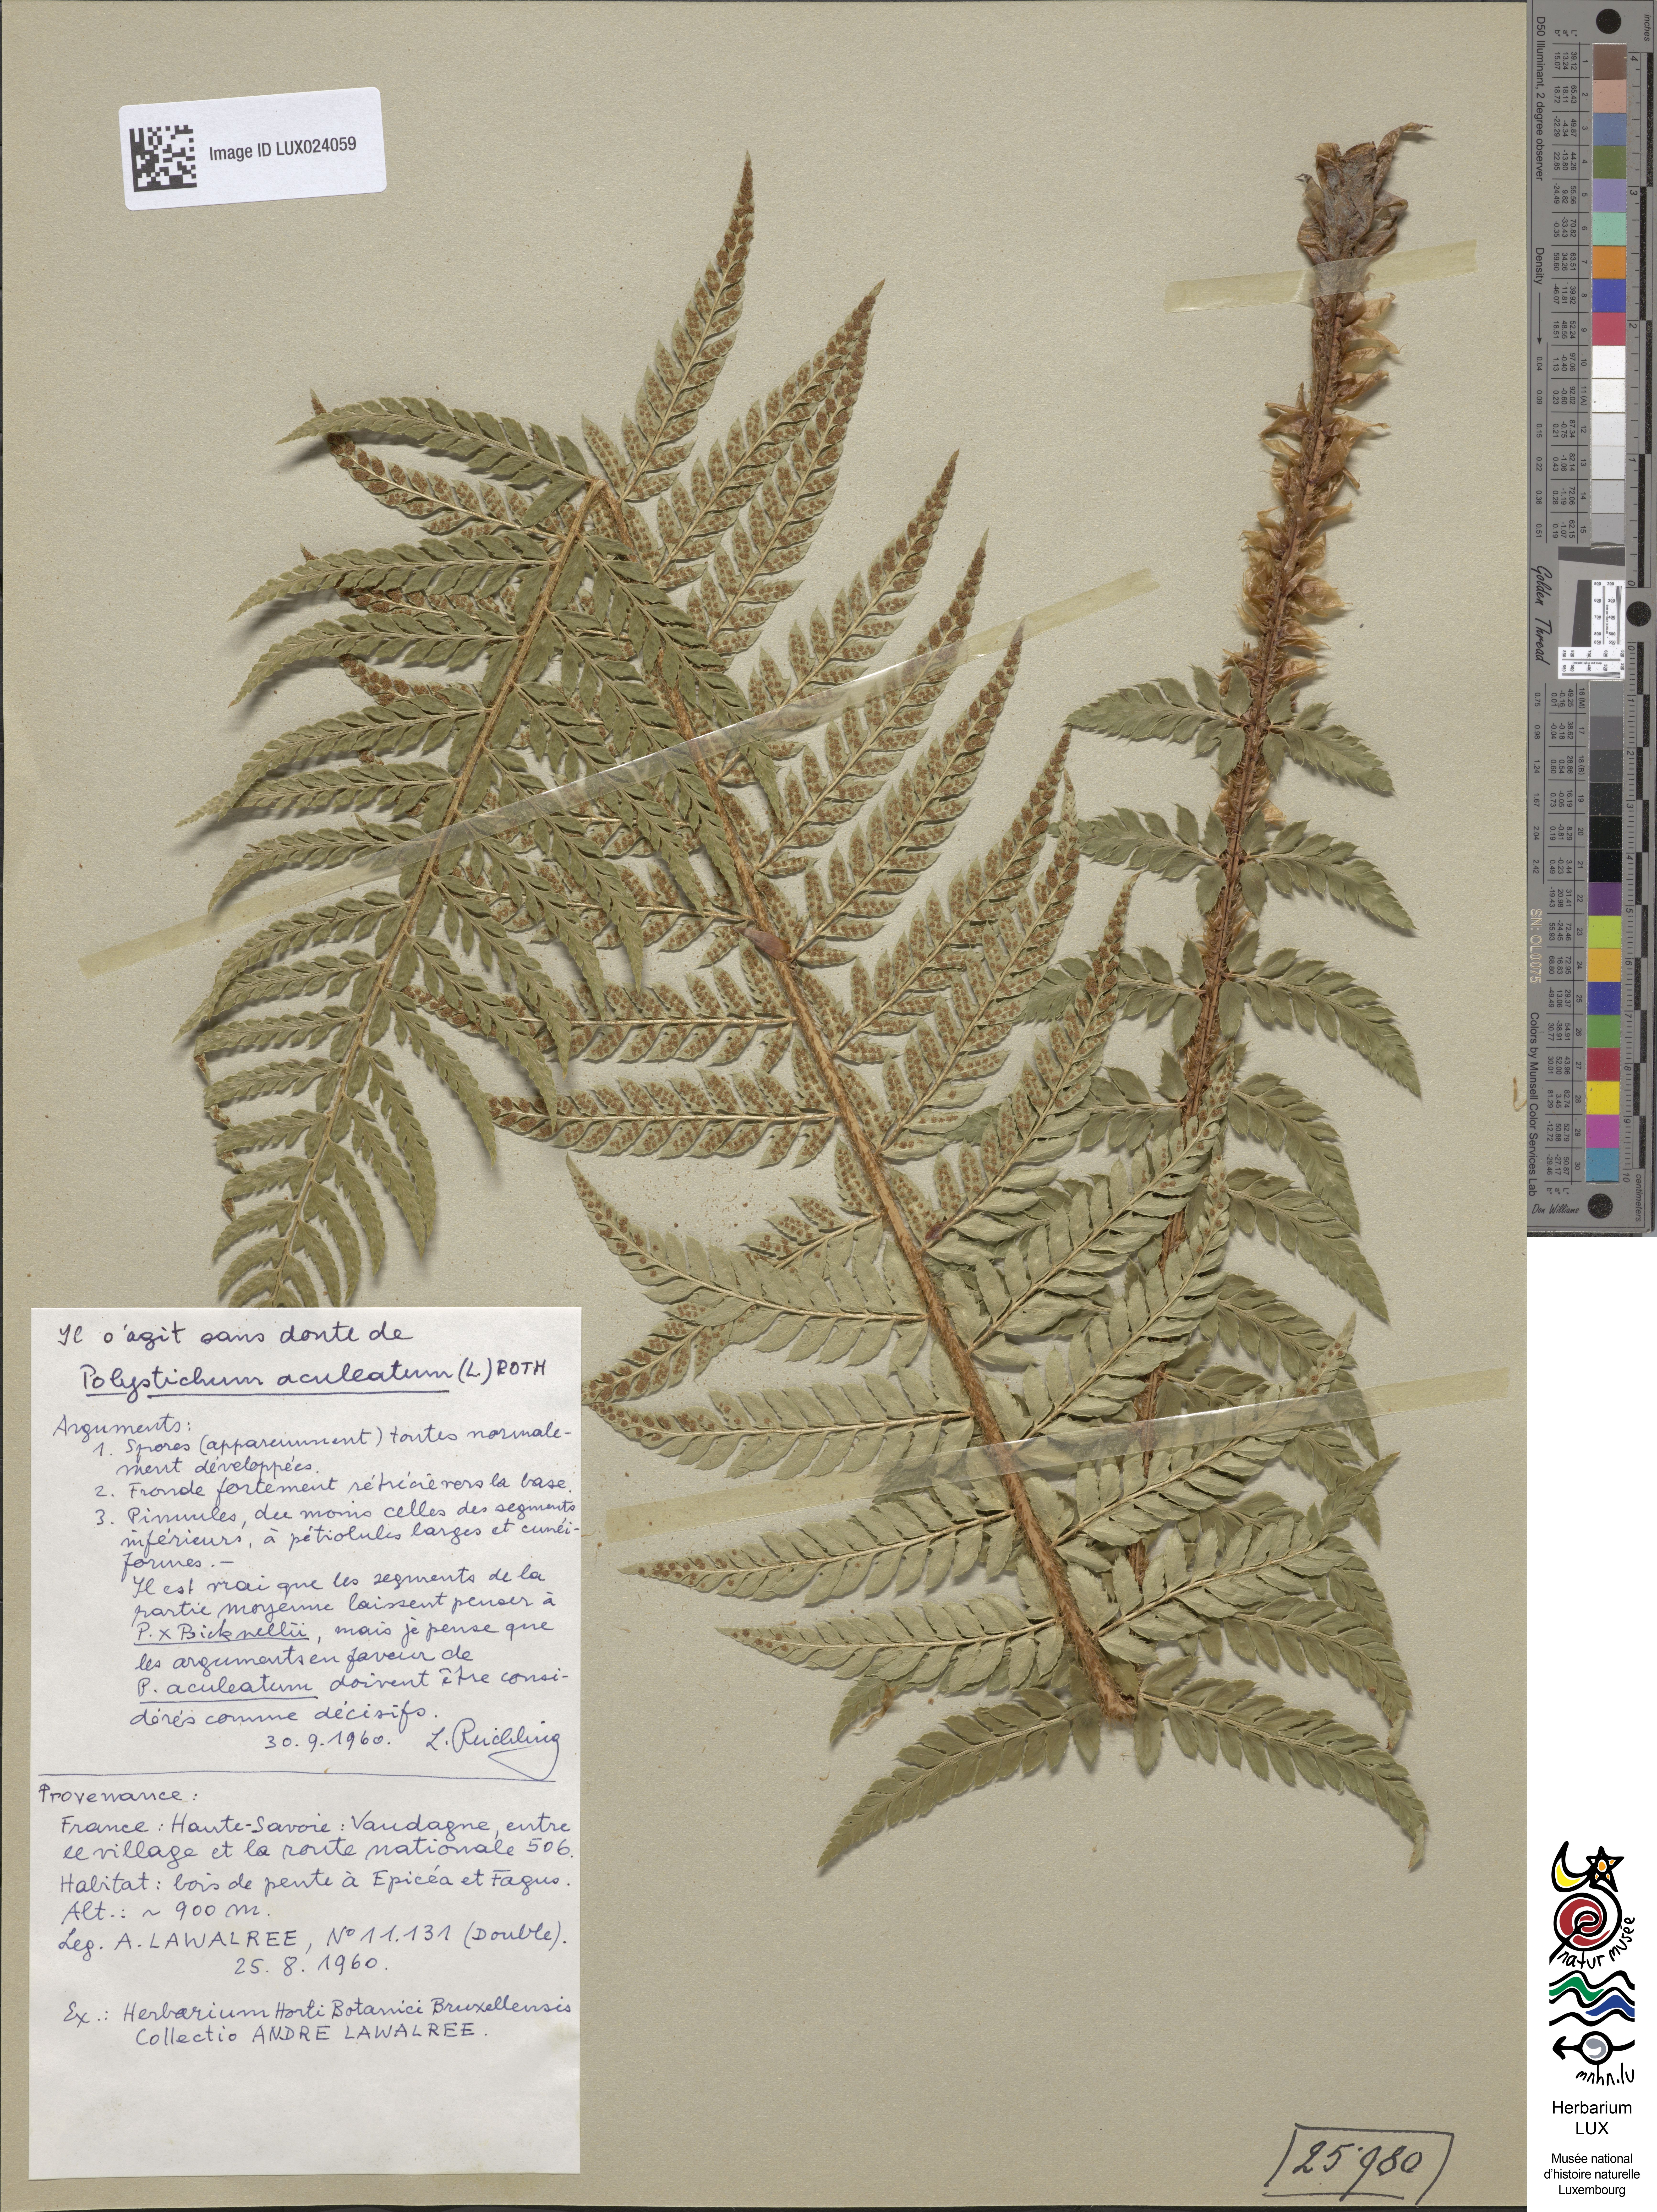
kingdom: Plantae
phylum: Tracheophyta
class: Polypodiopsida
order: Polypodiales
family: Dryopteridaceae
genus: Polystichum
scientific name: Polystichum aculeatum
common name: Hard shield-fern
